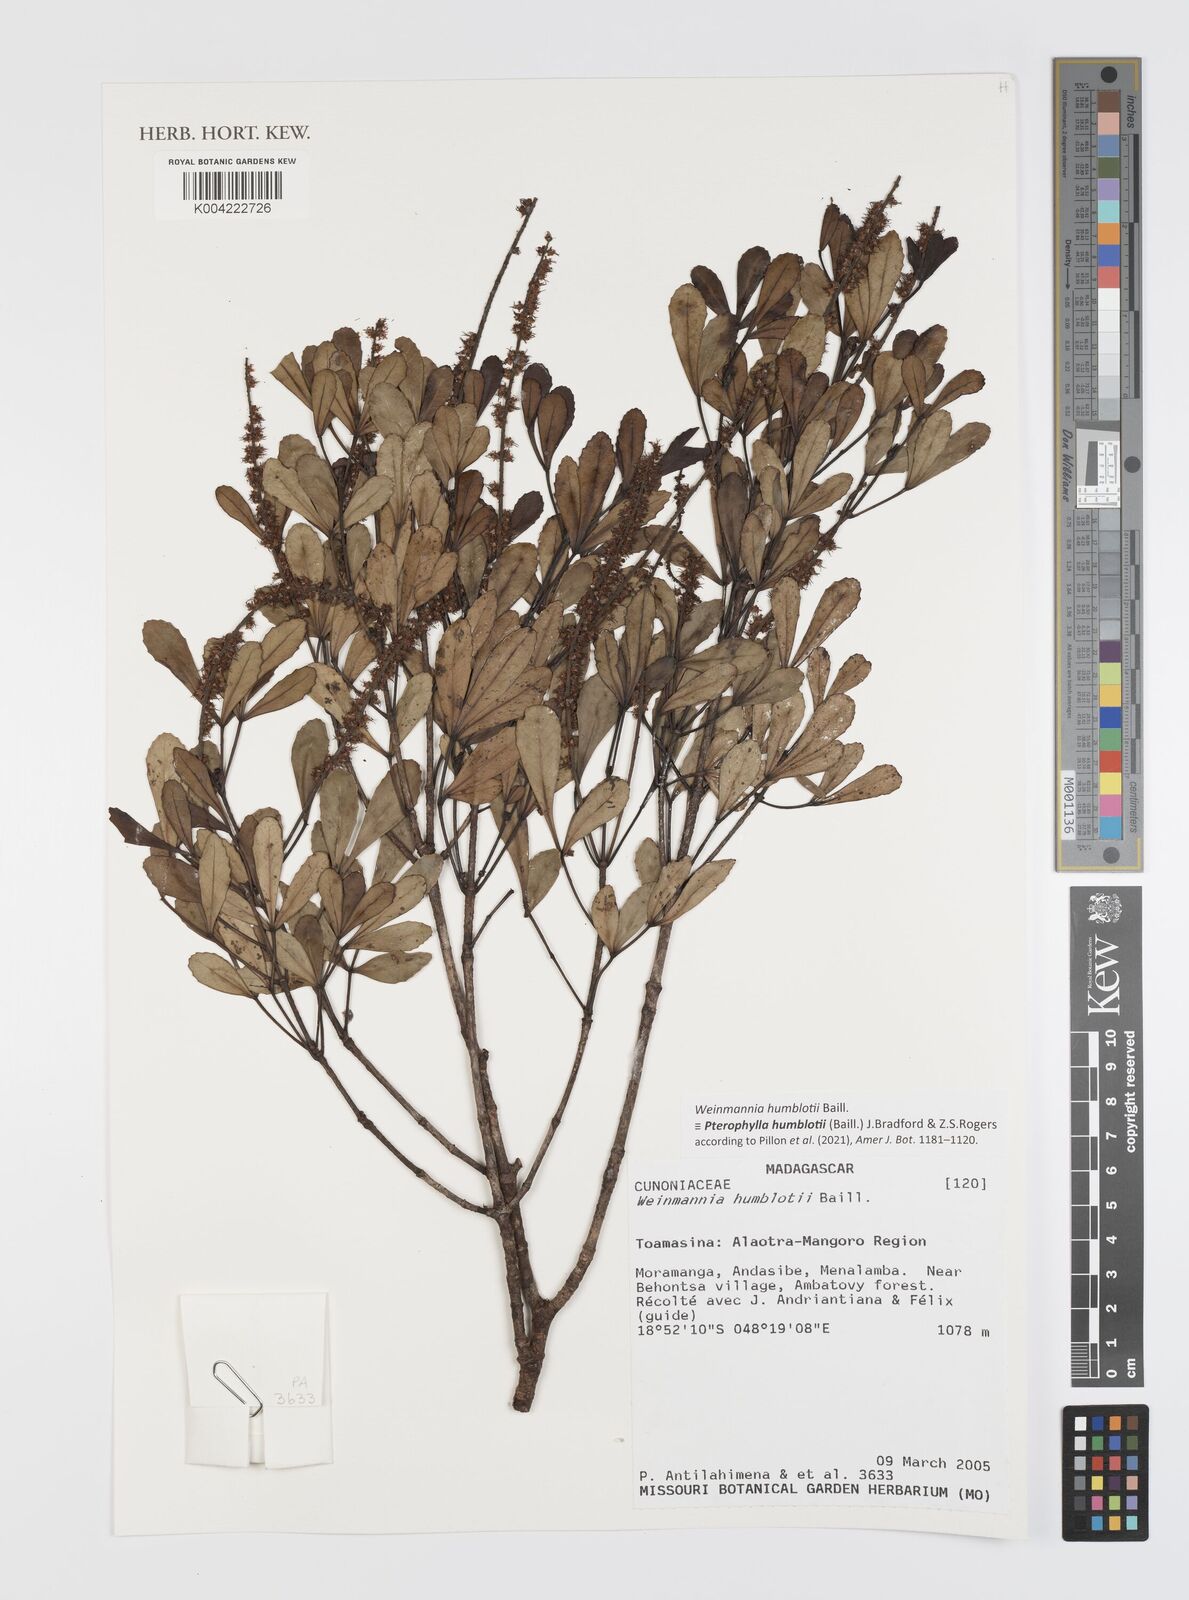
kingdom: Plantae
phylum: Tracheophyta
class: Magnoliopsida
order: Oxalidales
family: Cunoniaceae
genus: Pterophylla
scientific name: Pterophylla
